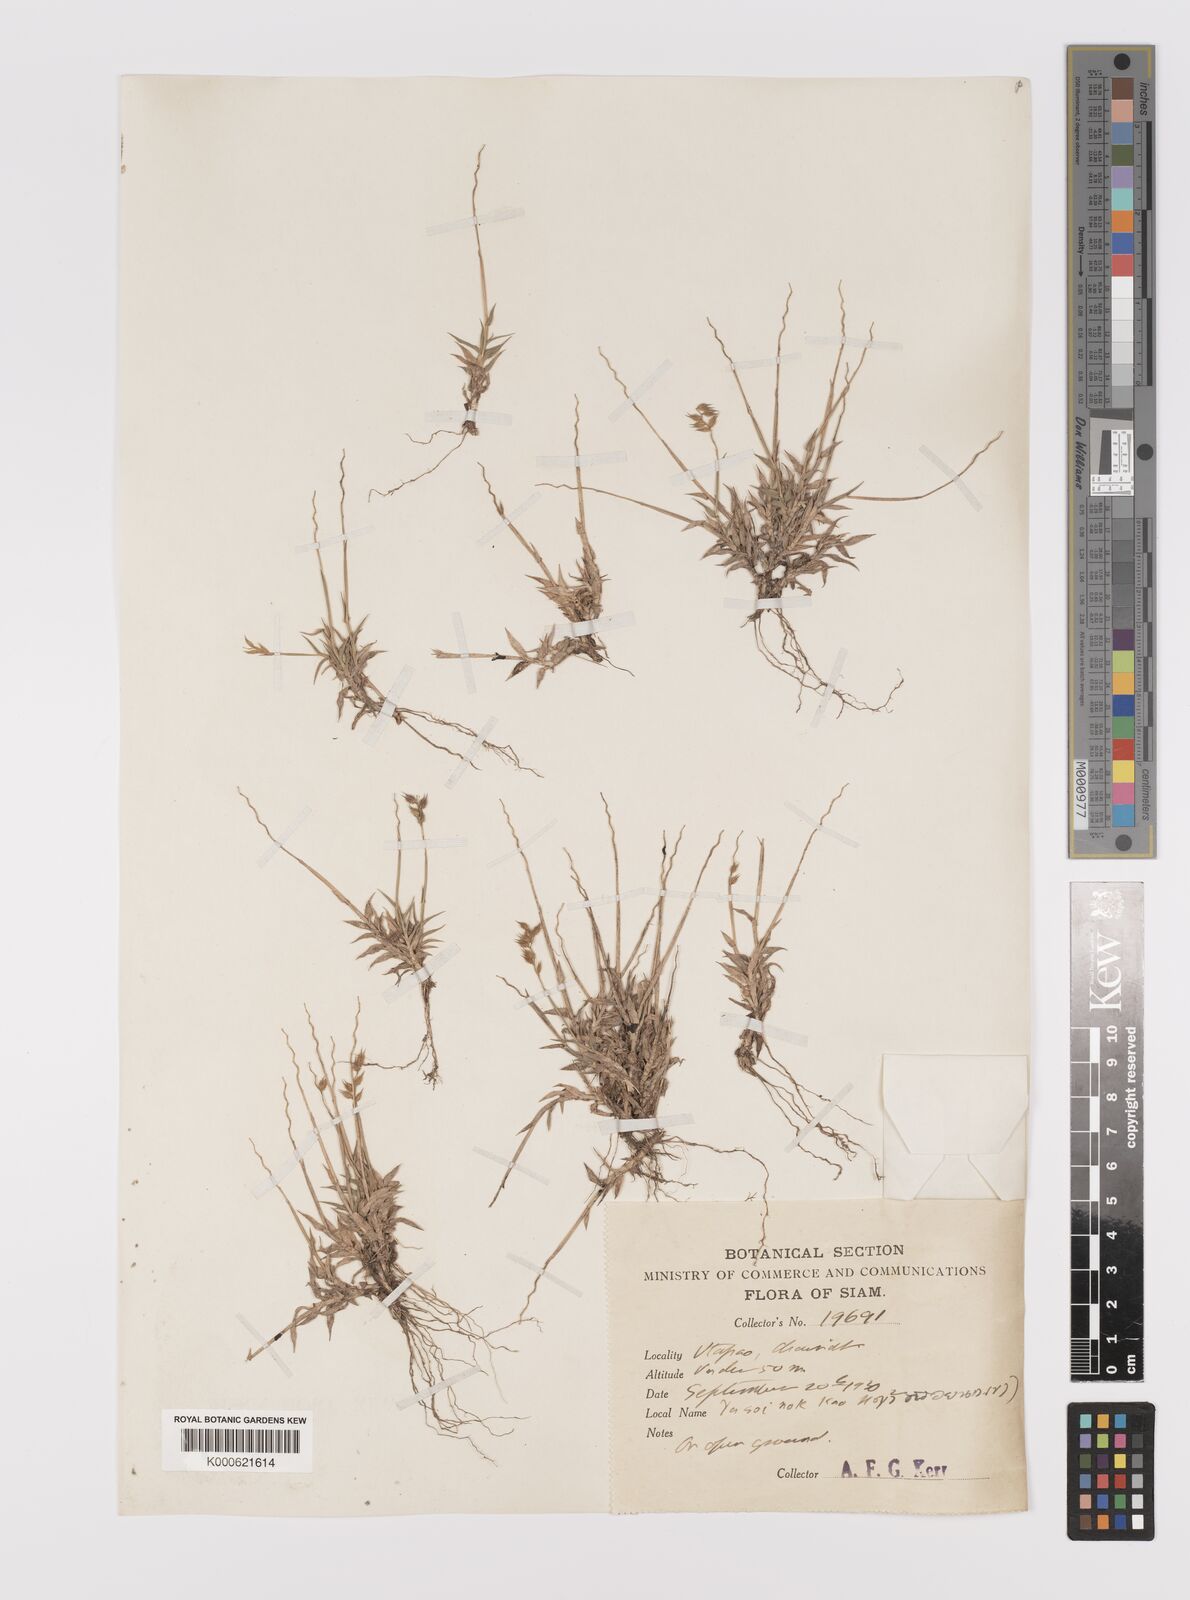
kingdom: Plantae
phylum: Tracheophyta
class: Liliopsida
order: Poales
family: Poaceae
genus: Tragus
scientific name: Tragus mongolorum
